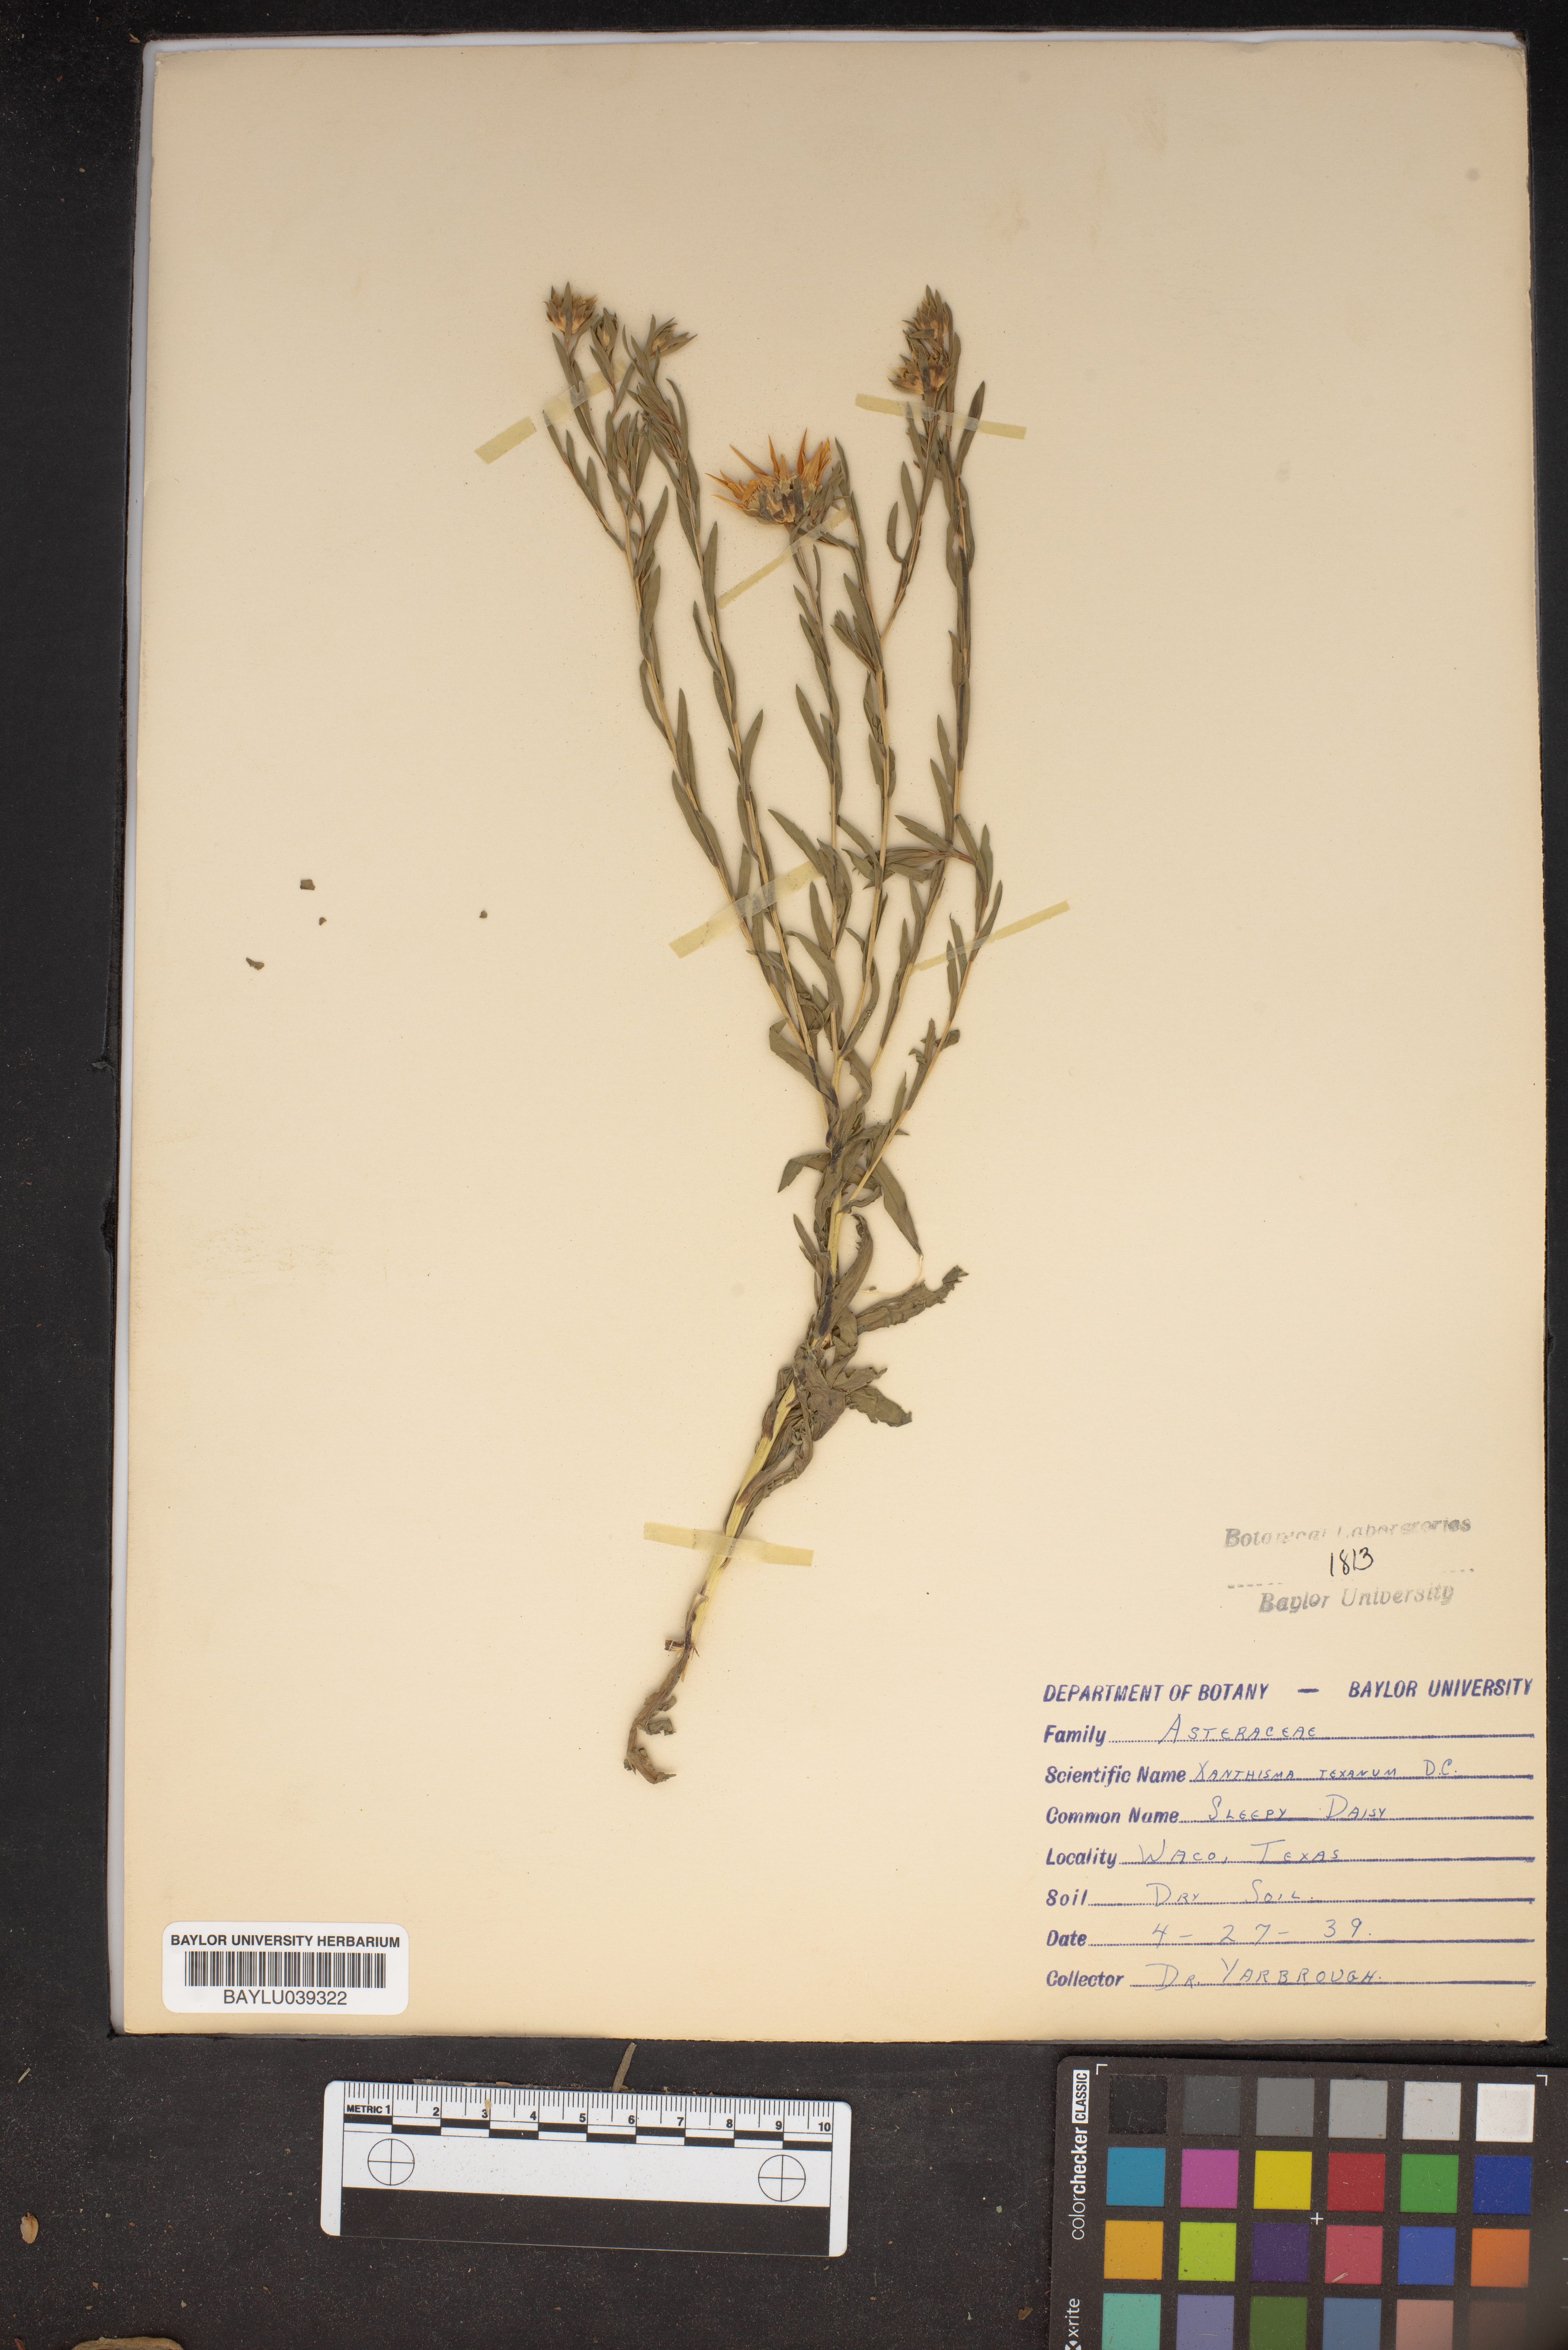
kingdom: Plantae
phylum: Tracheophyta
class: Magnoliopsida
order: Asterales
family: Asteraceae
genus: Xanthisma
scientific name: Xanthisma texanum
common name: Texas sleepy daisy
